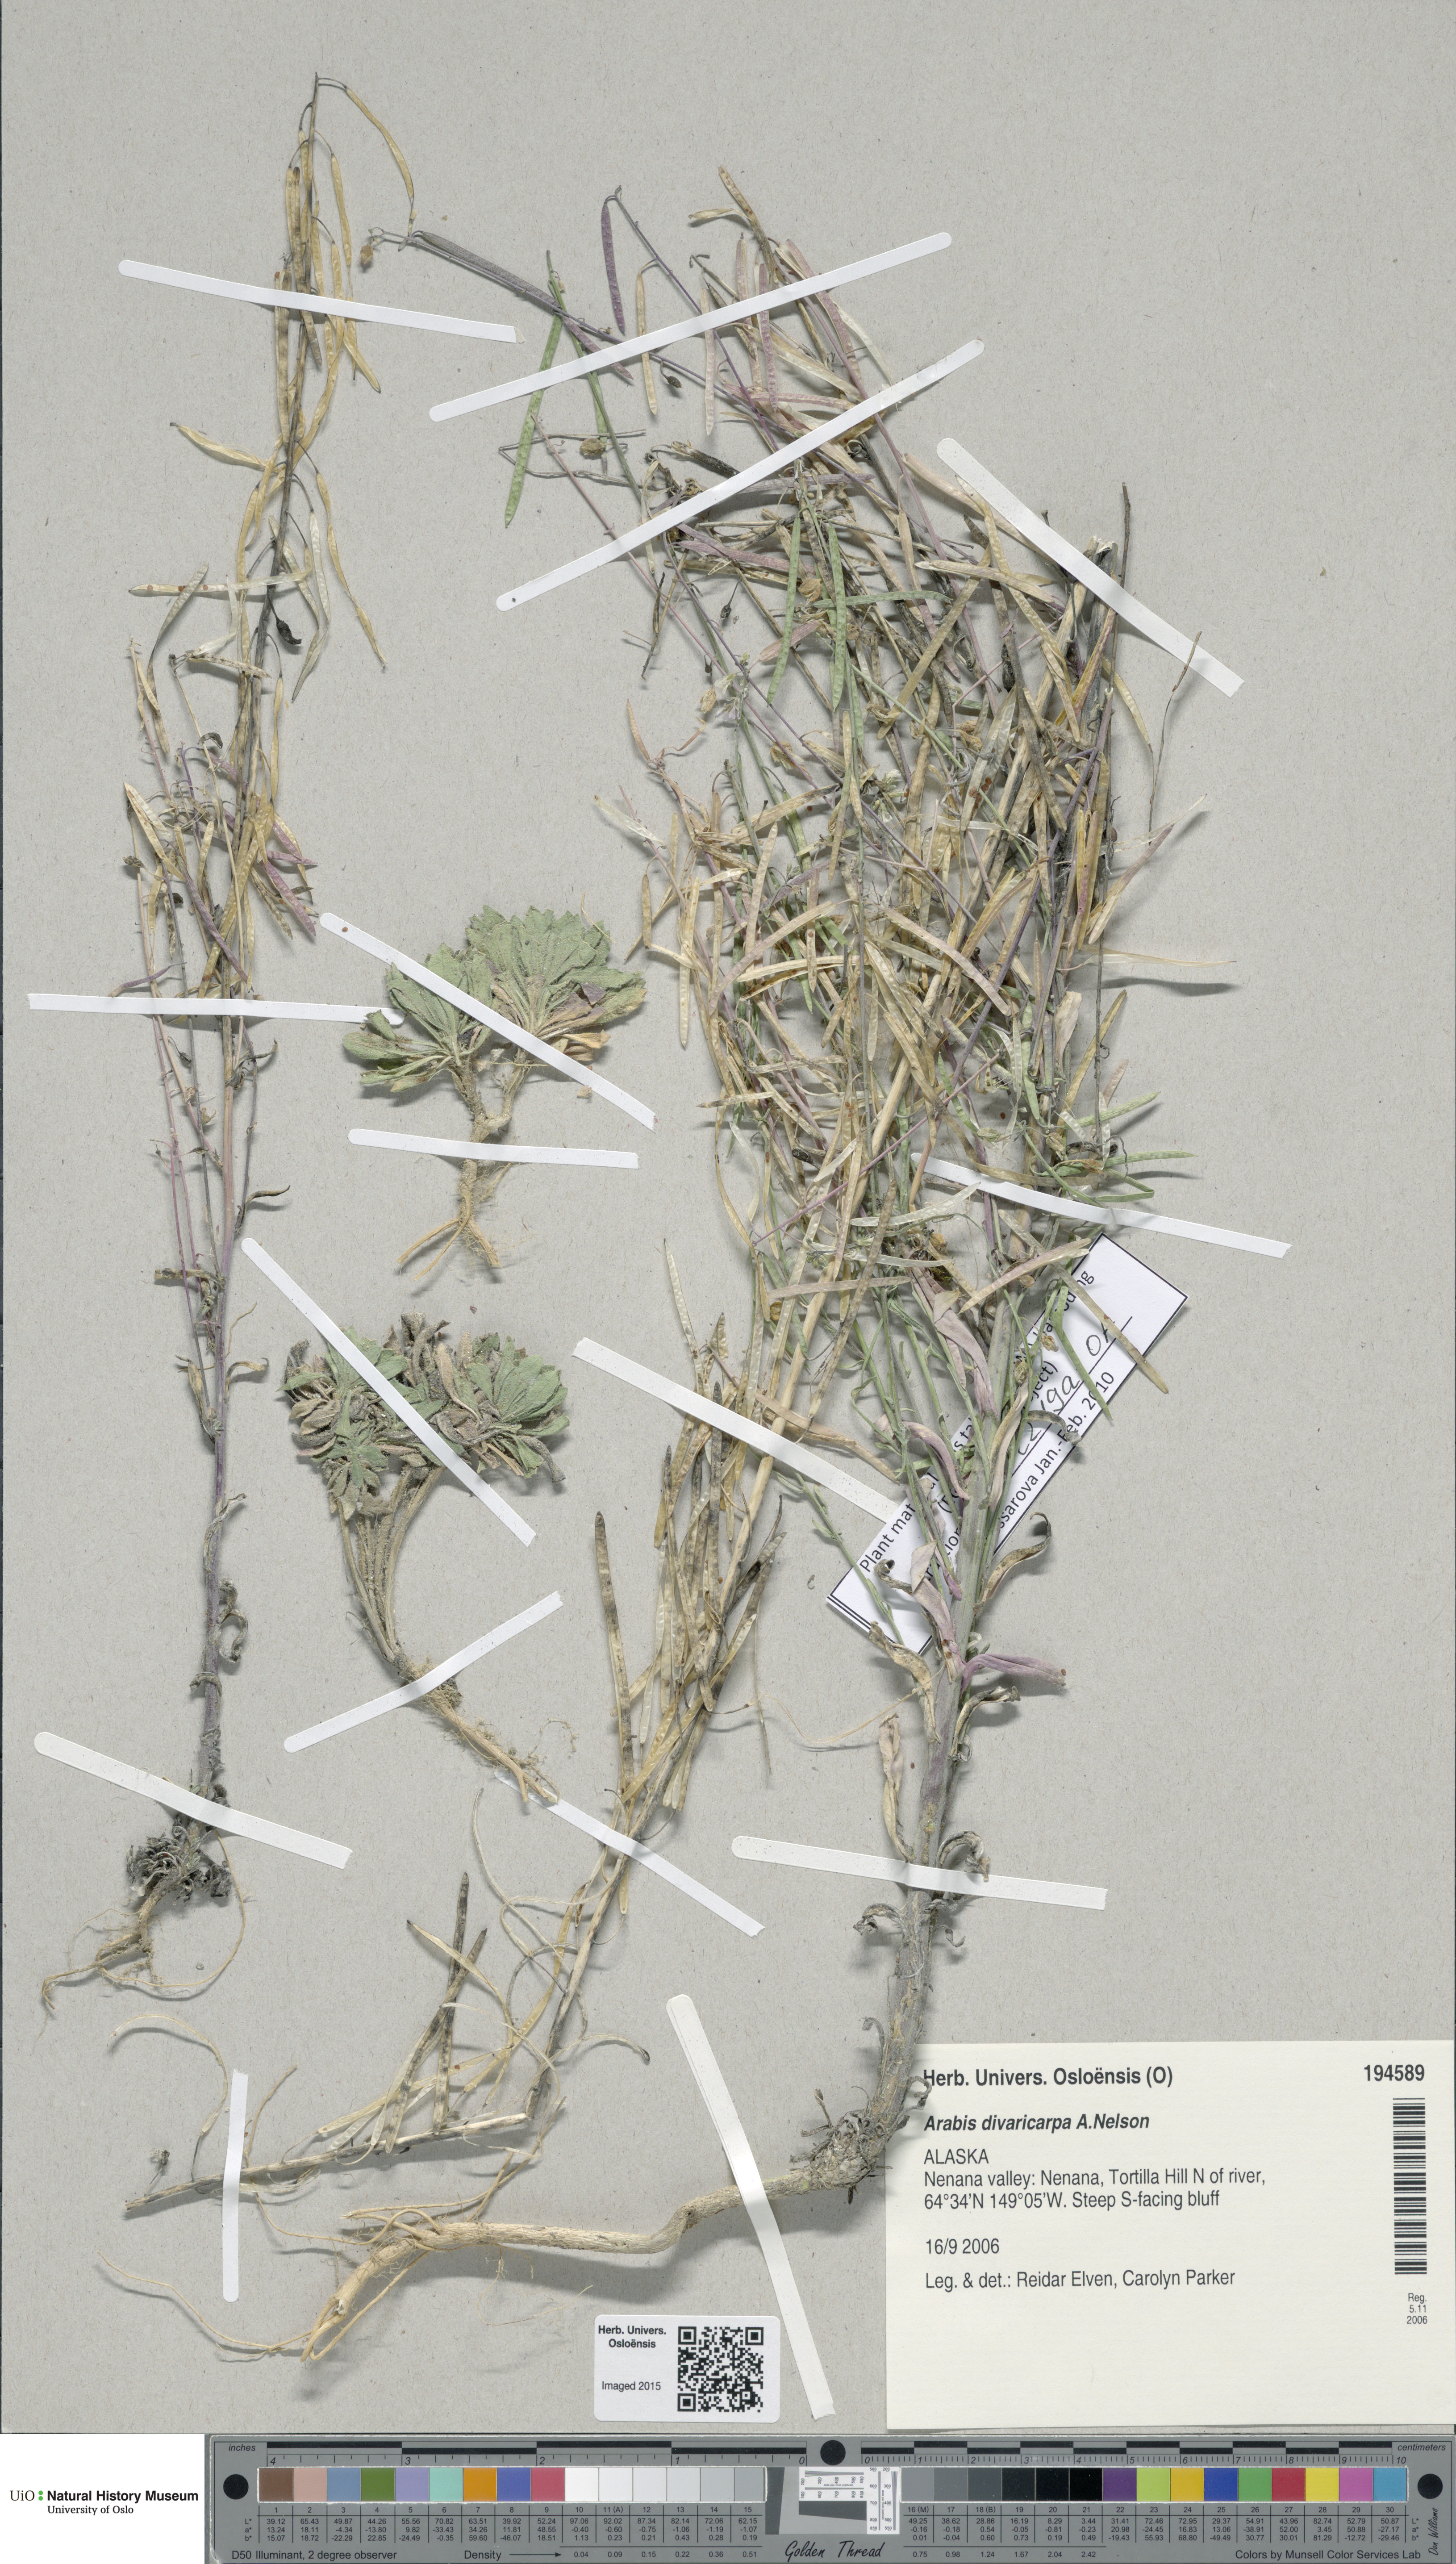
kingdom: Plantae
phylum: Tracheophyta
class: Magnoliopsida
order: Brassicales
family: Brassicaceae
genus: Boechera
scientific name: Boechera divaricarpa
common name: Divaricate rockcress
